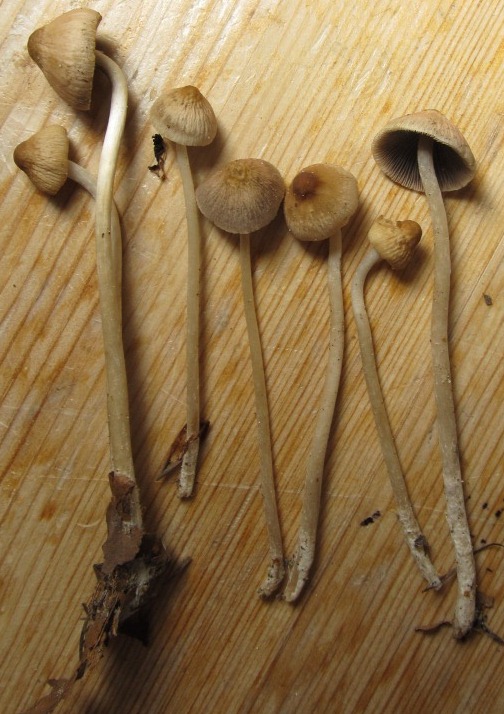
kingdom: Fungi
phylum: Basidiomycota
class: Agaricomycetes
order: Agaricales
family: Psathyrellaceae
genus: Psathyrella
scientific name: Psathyrella corrugis
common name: rødægget mørkhat
